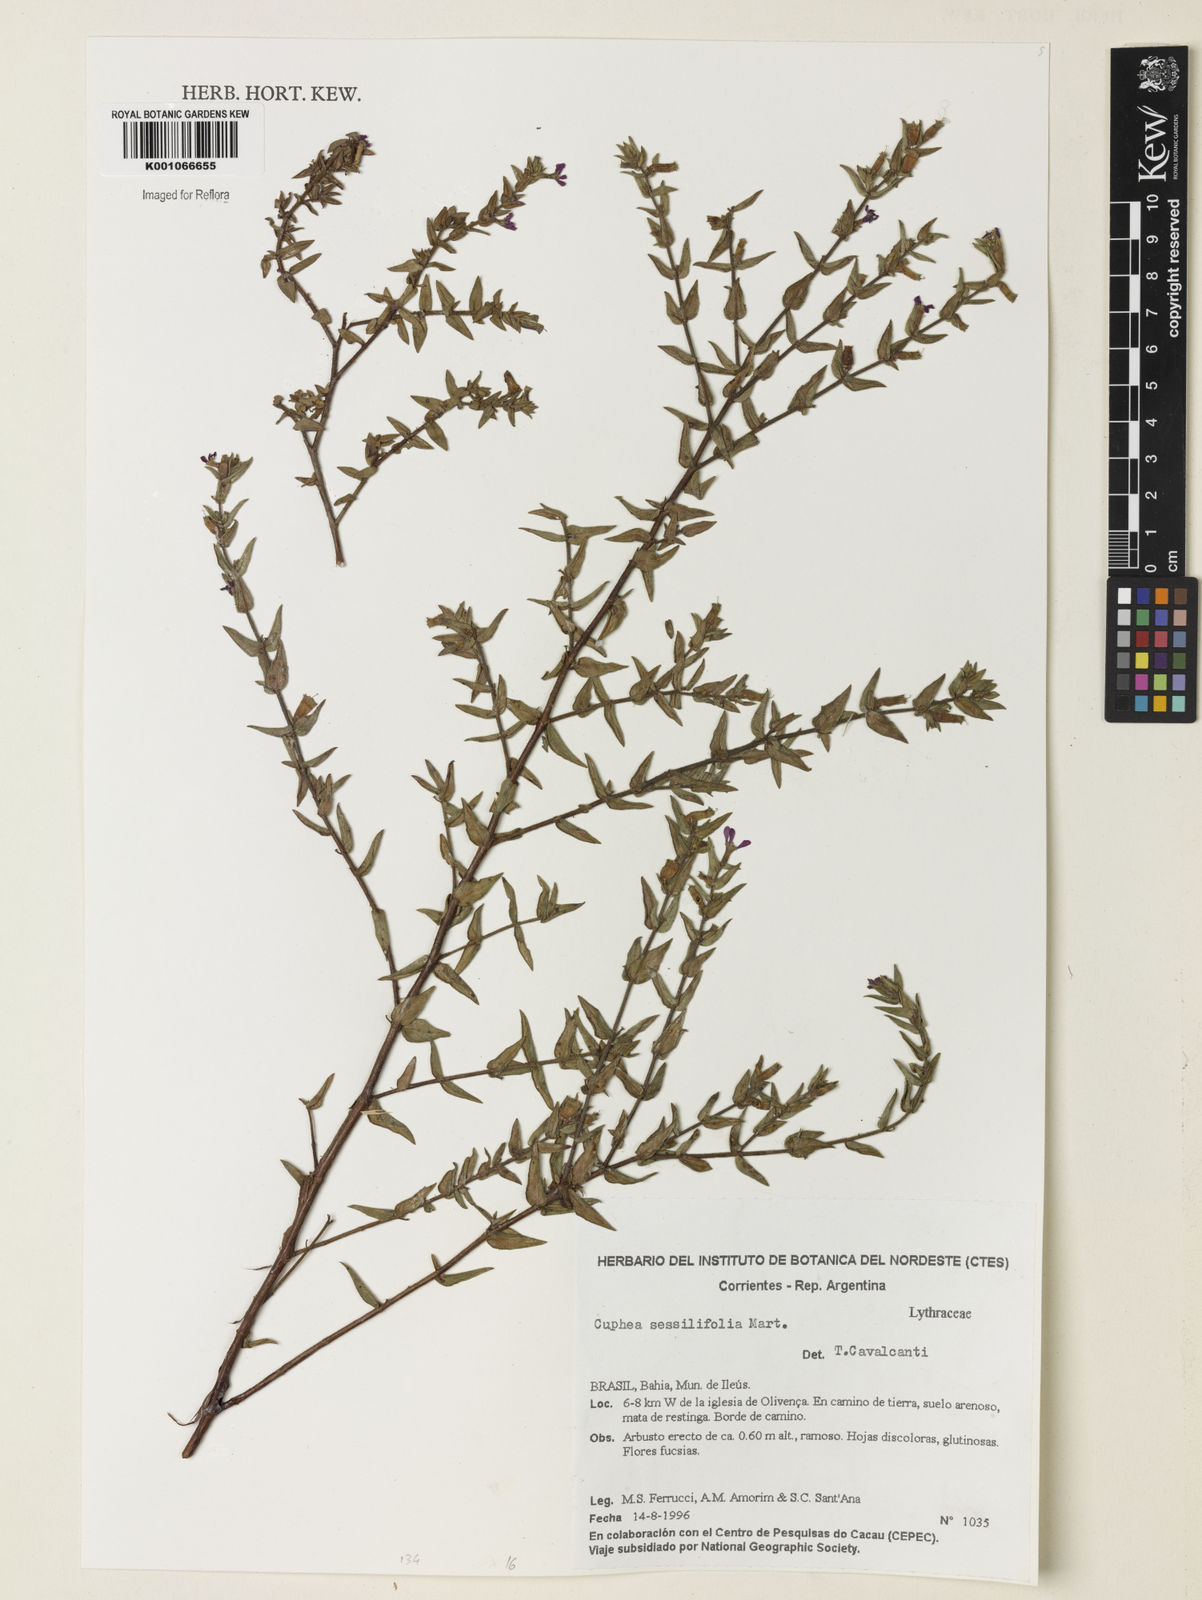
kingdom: Plantae
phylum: Tracheophyta
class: Magnoliopsida
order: Myrtales
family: Lythraceae
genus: Cuphea
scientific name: Cuphea sessiliflora
